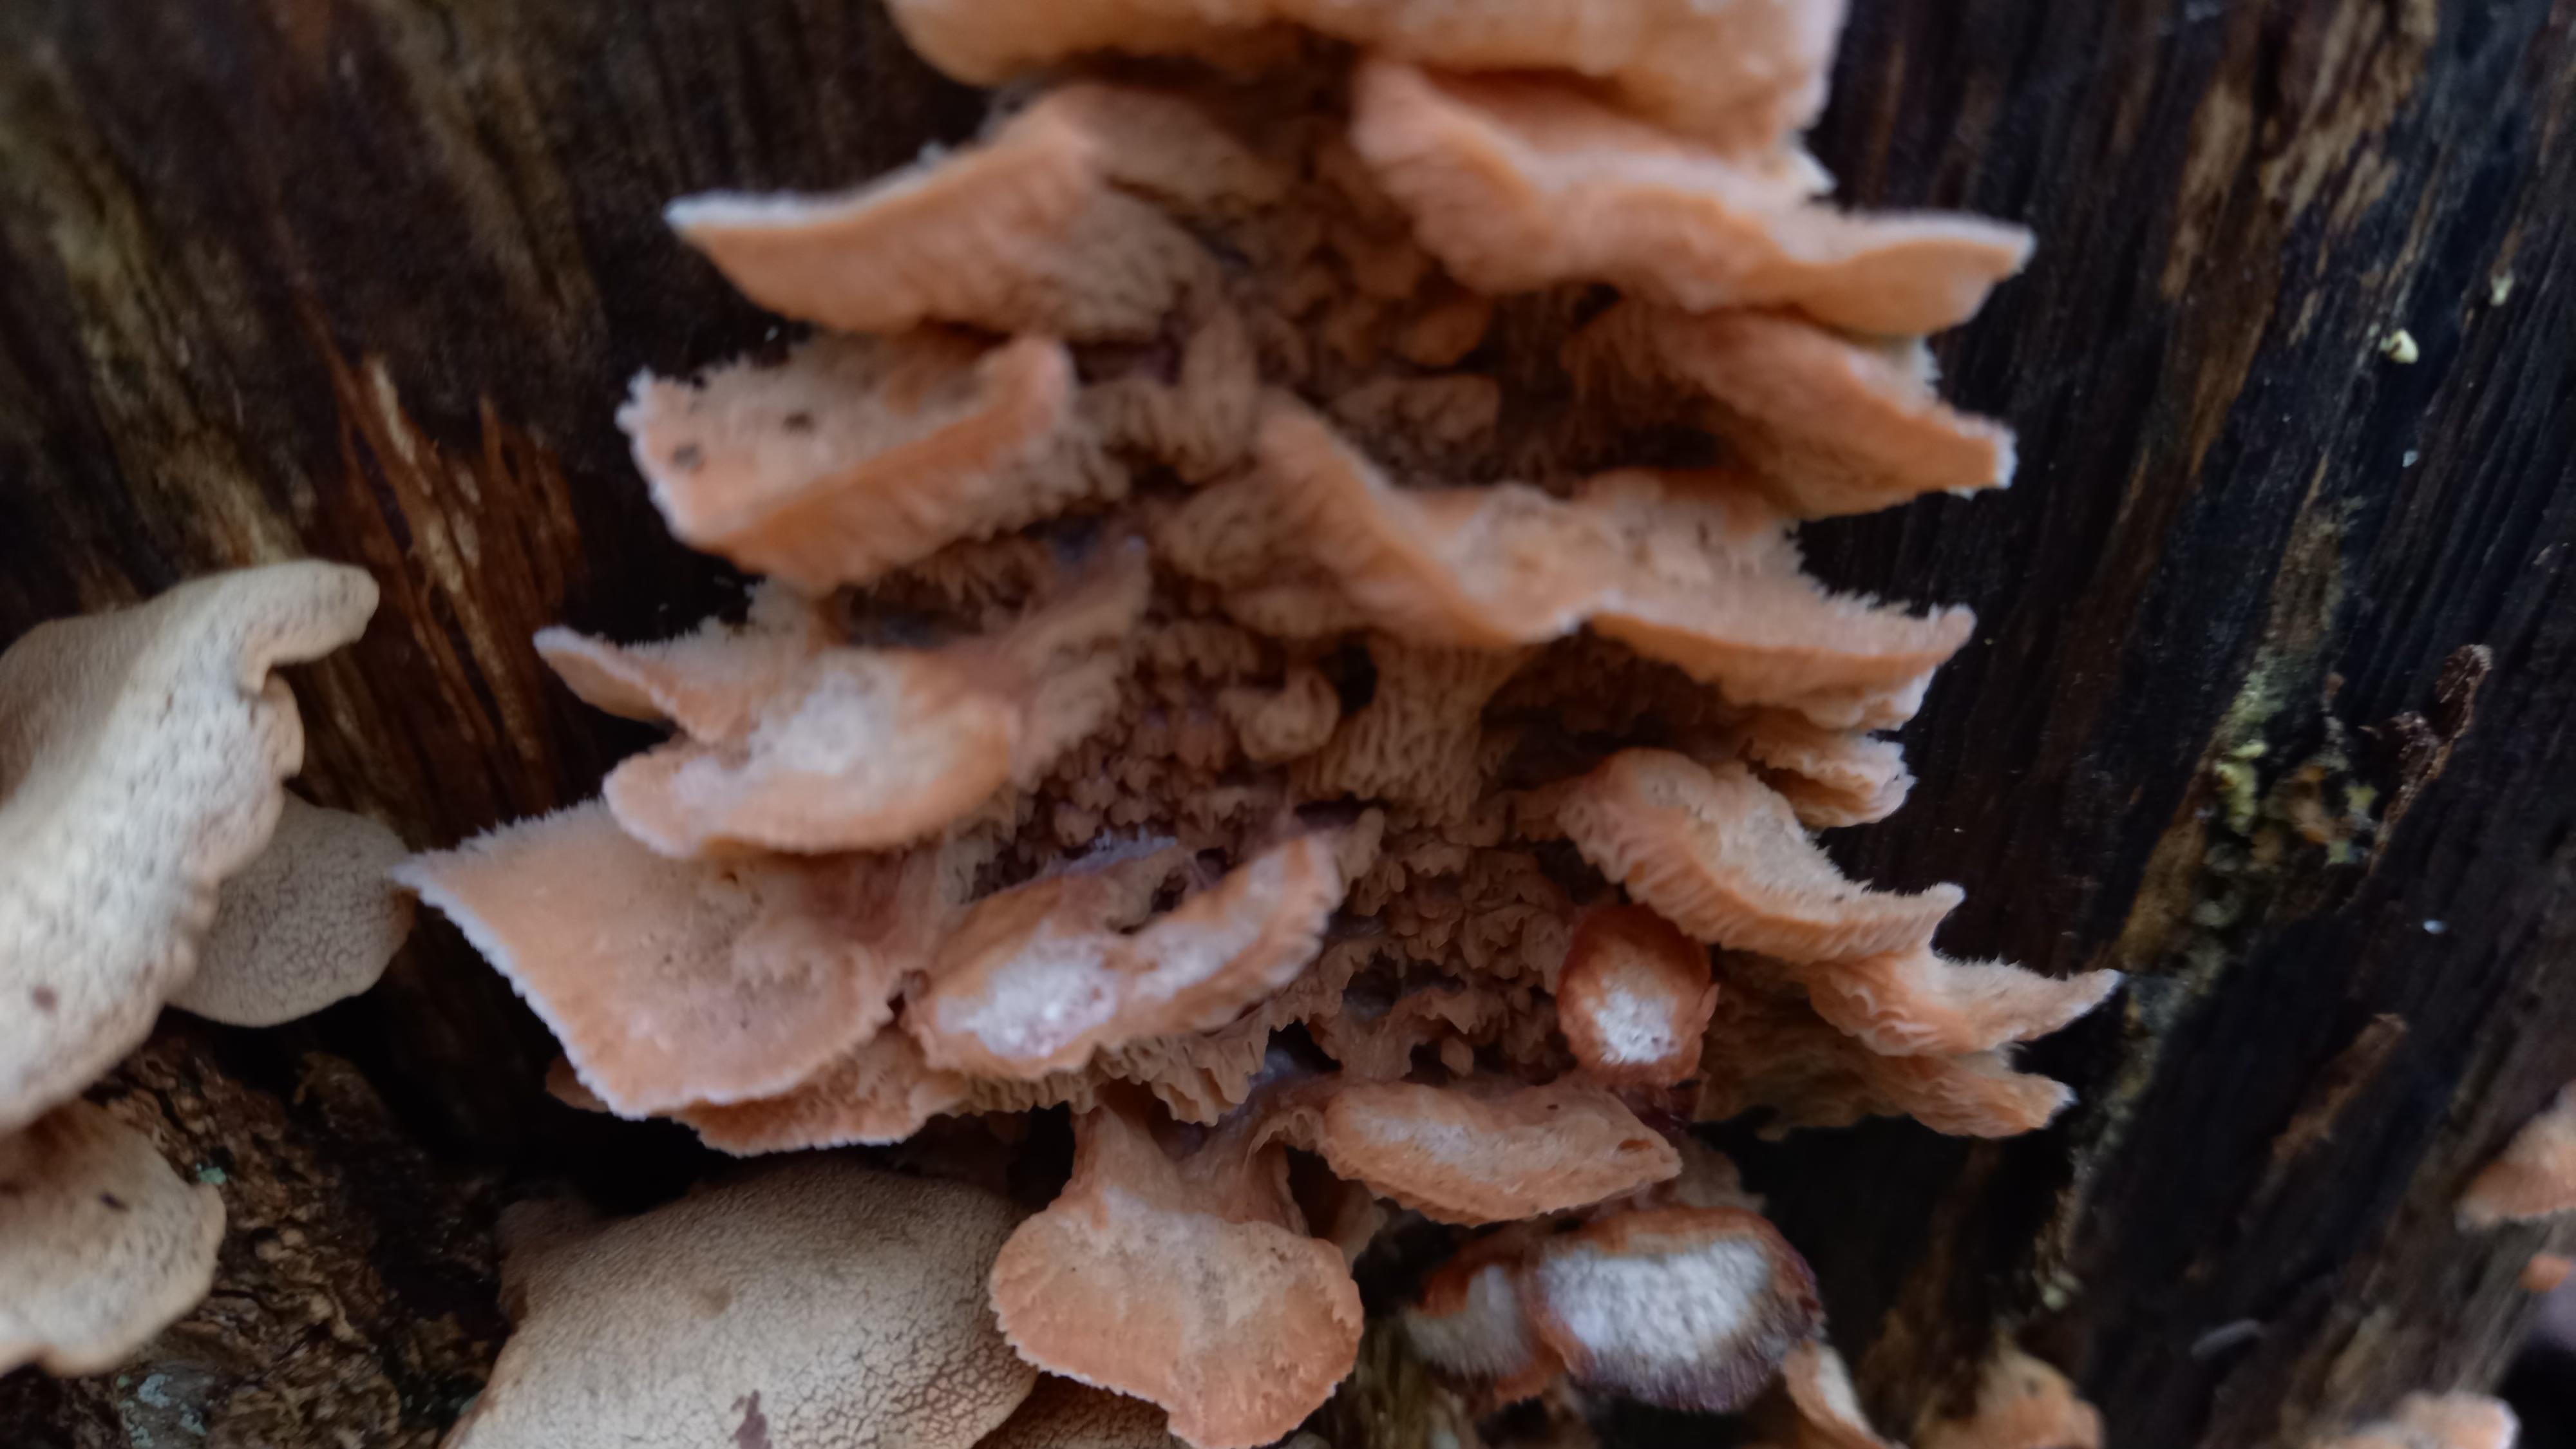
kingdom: Fungi
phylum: Basidiomycota
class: Agaricomycetes
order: Polyporales
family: Meruliaceae
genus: Phlebia
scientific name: Phlebia tremellosa
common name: bævrende åresvamp
